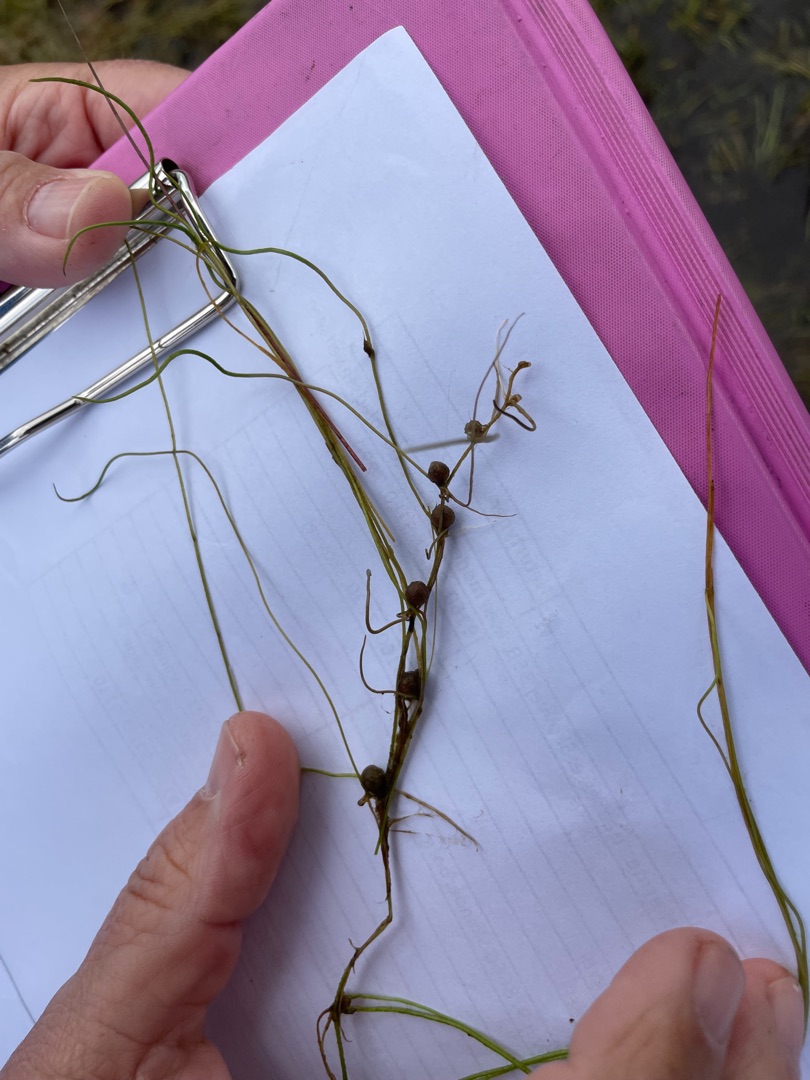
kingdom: Plantae
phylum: Tracheophyta
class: Polypodiopsida
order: Salviniales
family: Marsileaceae
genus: Pilularia
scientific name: Pilularia globulifera
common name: Pilledrager
